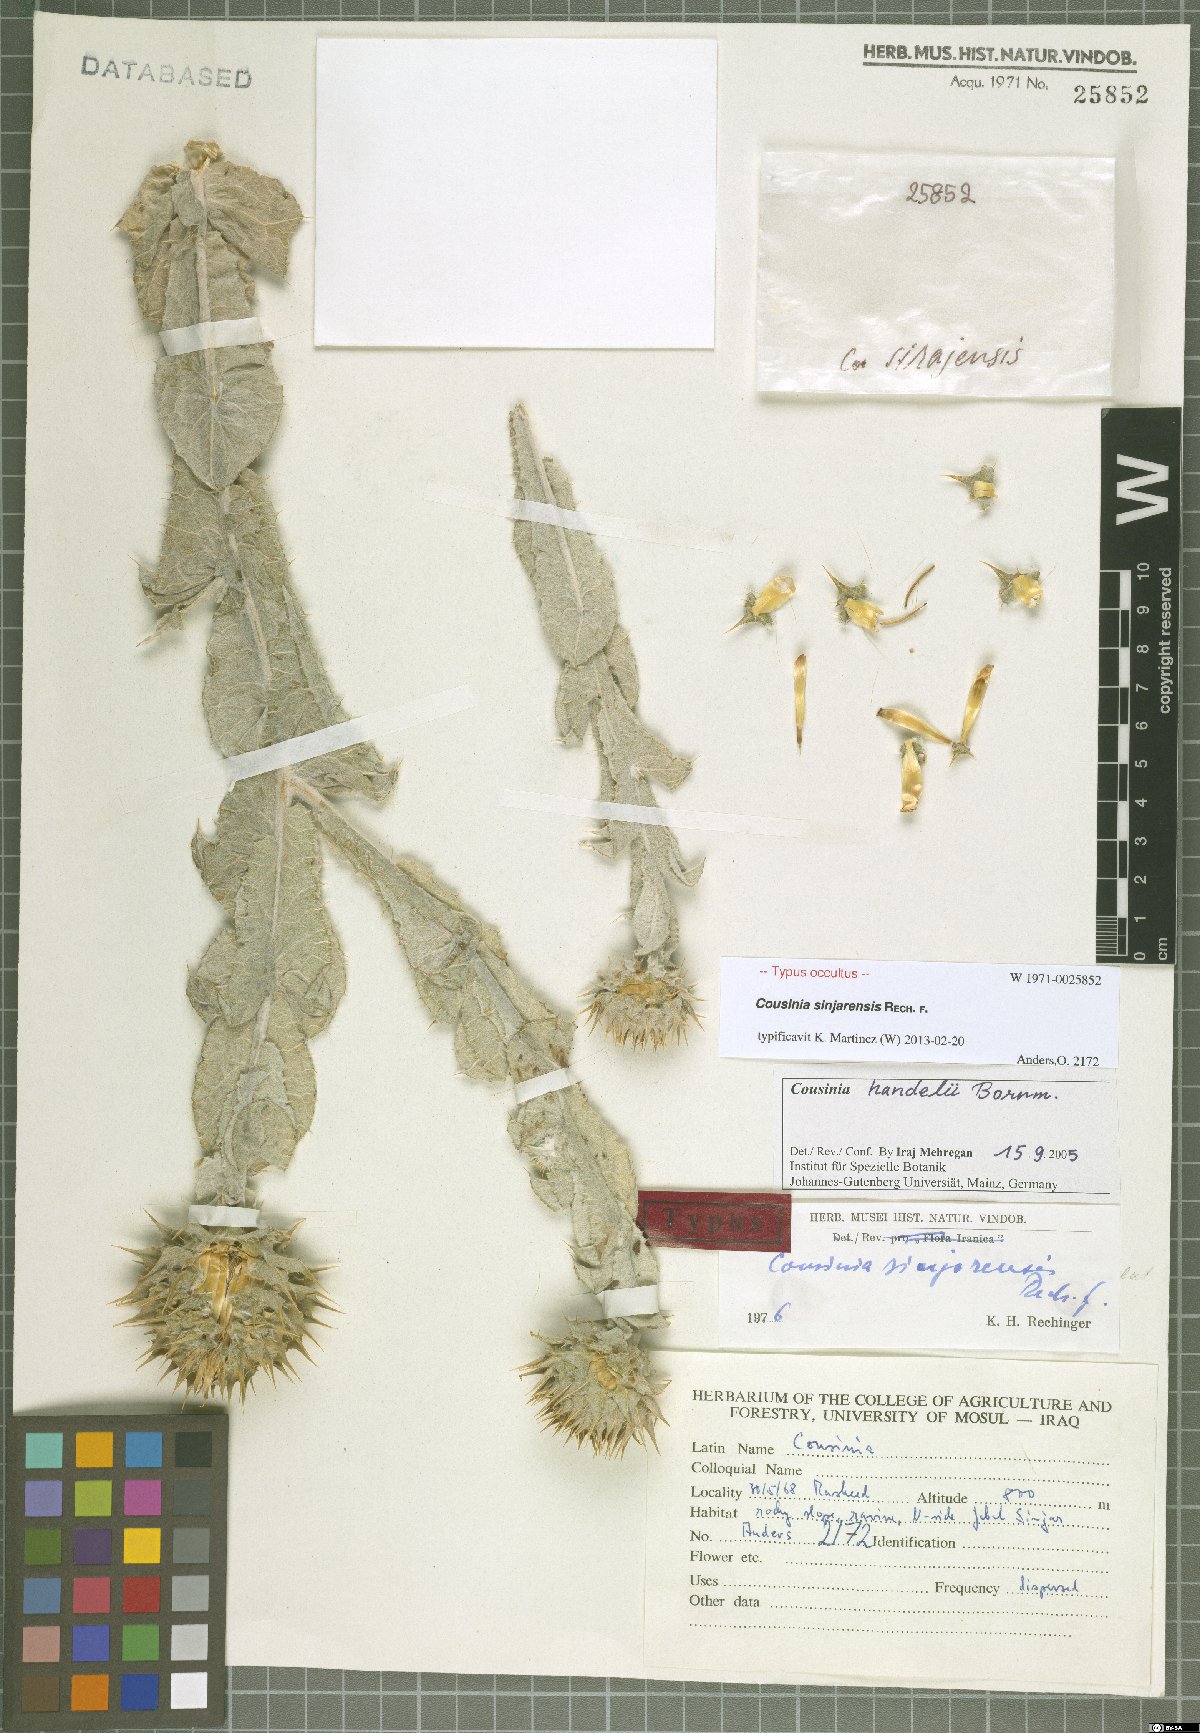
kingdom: Plantae
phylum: Tracheophyta
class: Magnoliopsida
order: Asterales
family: Asteraceae
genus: Cousinia
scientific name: Cousinia aintabensis
